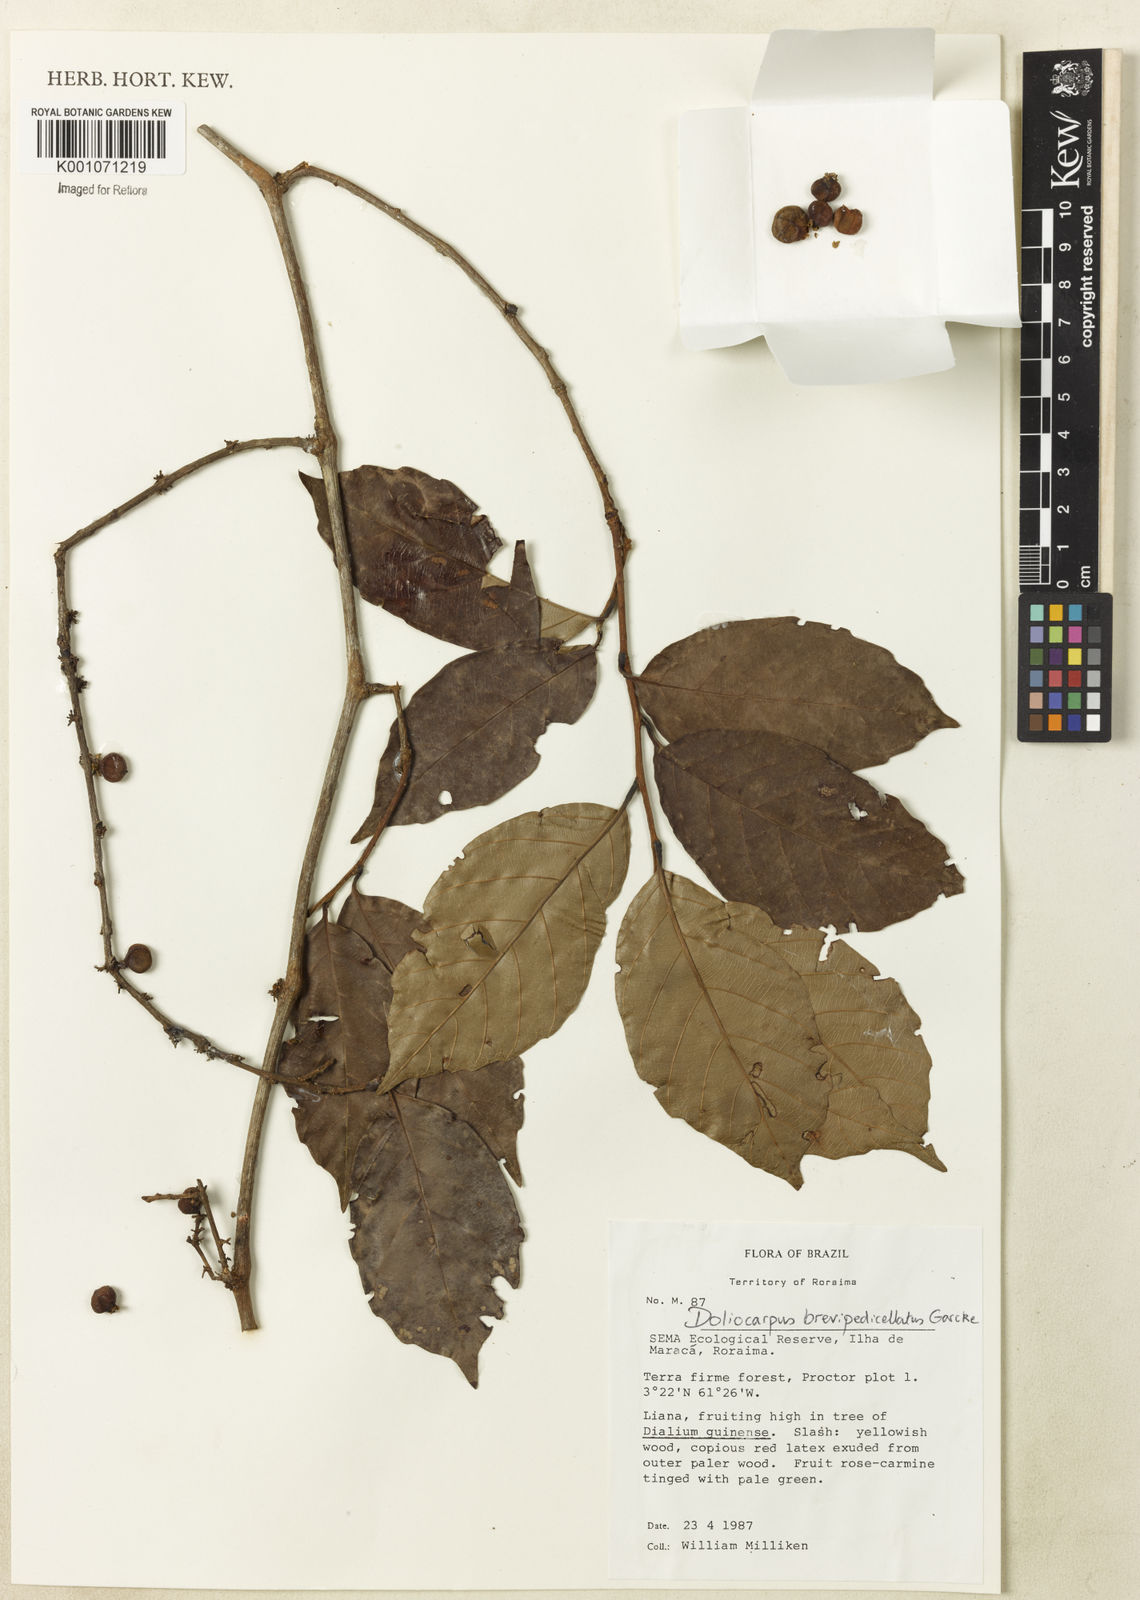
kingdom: Plantae
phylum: Tracheophyta
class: Magnoliopsida
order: Dilleniales
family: Dilleniaceae
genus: Doliocarpus
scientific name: Doliocarpus brevipedicellatus
